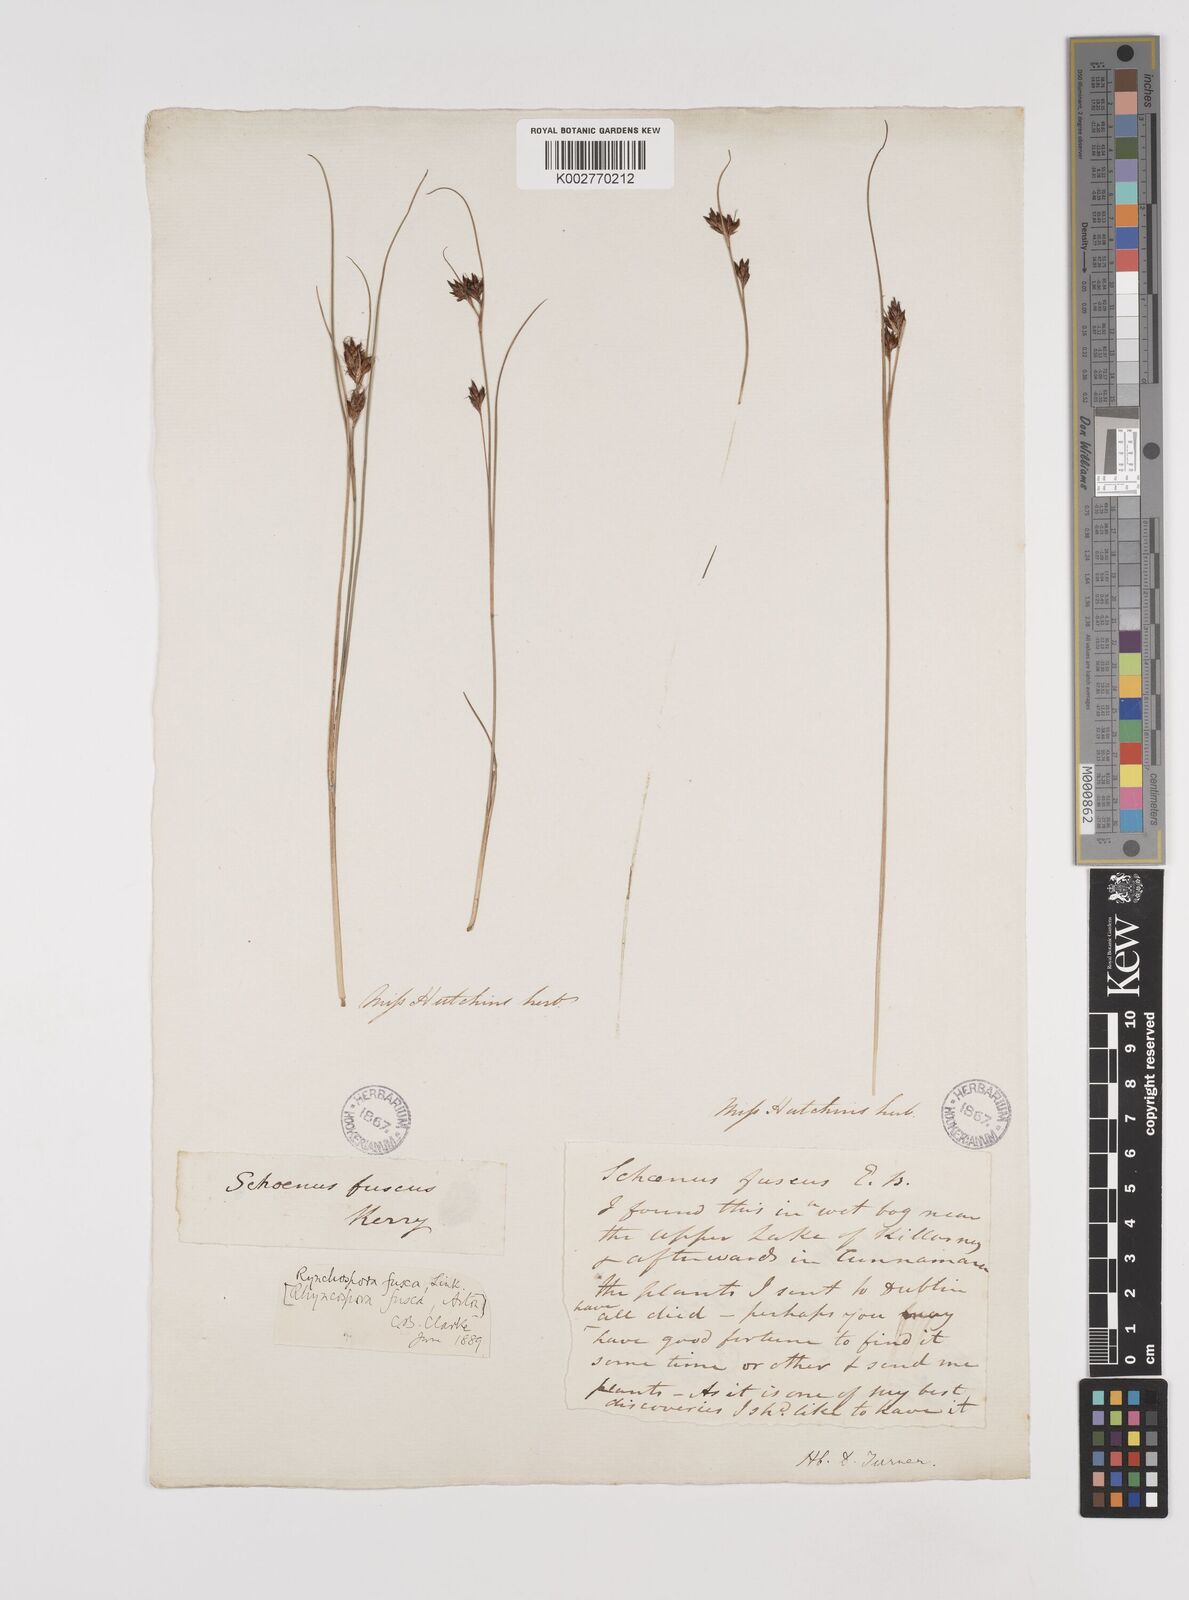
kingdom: Plantae
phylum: Tracheophyta
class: Liliopsida
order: Poales
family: Cyperaceae
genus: Rhynchospora
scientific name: Rhynchospora fusca
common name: Brown beak-sedge
